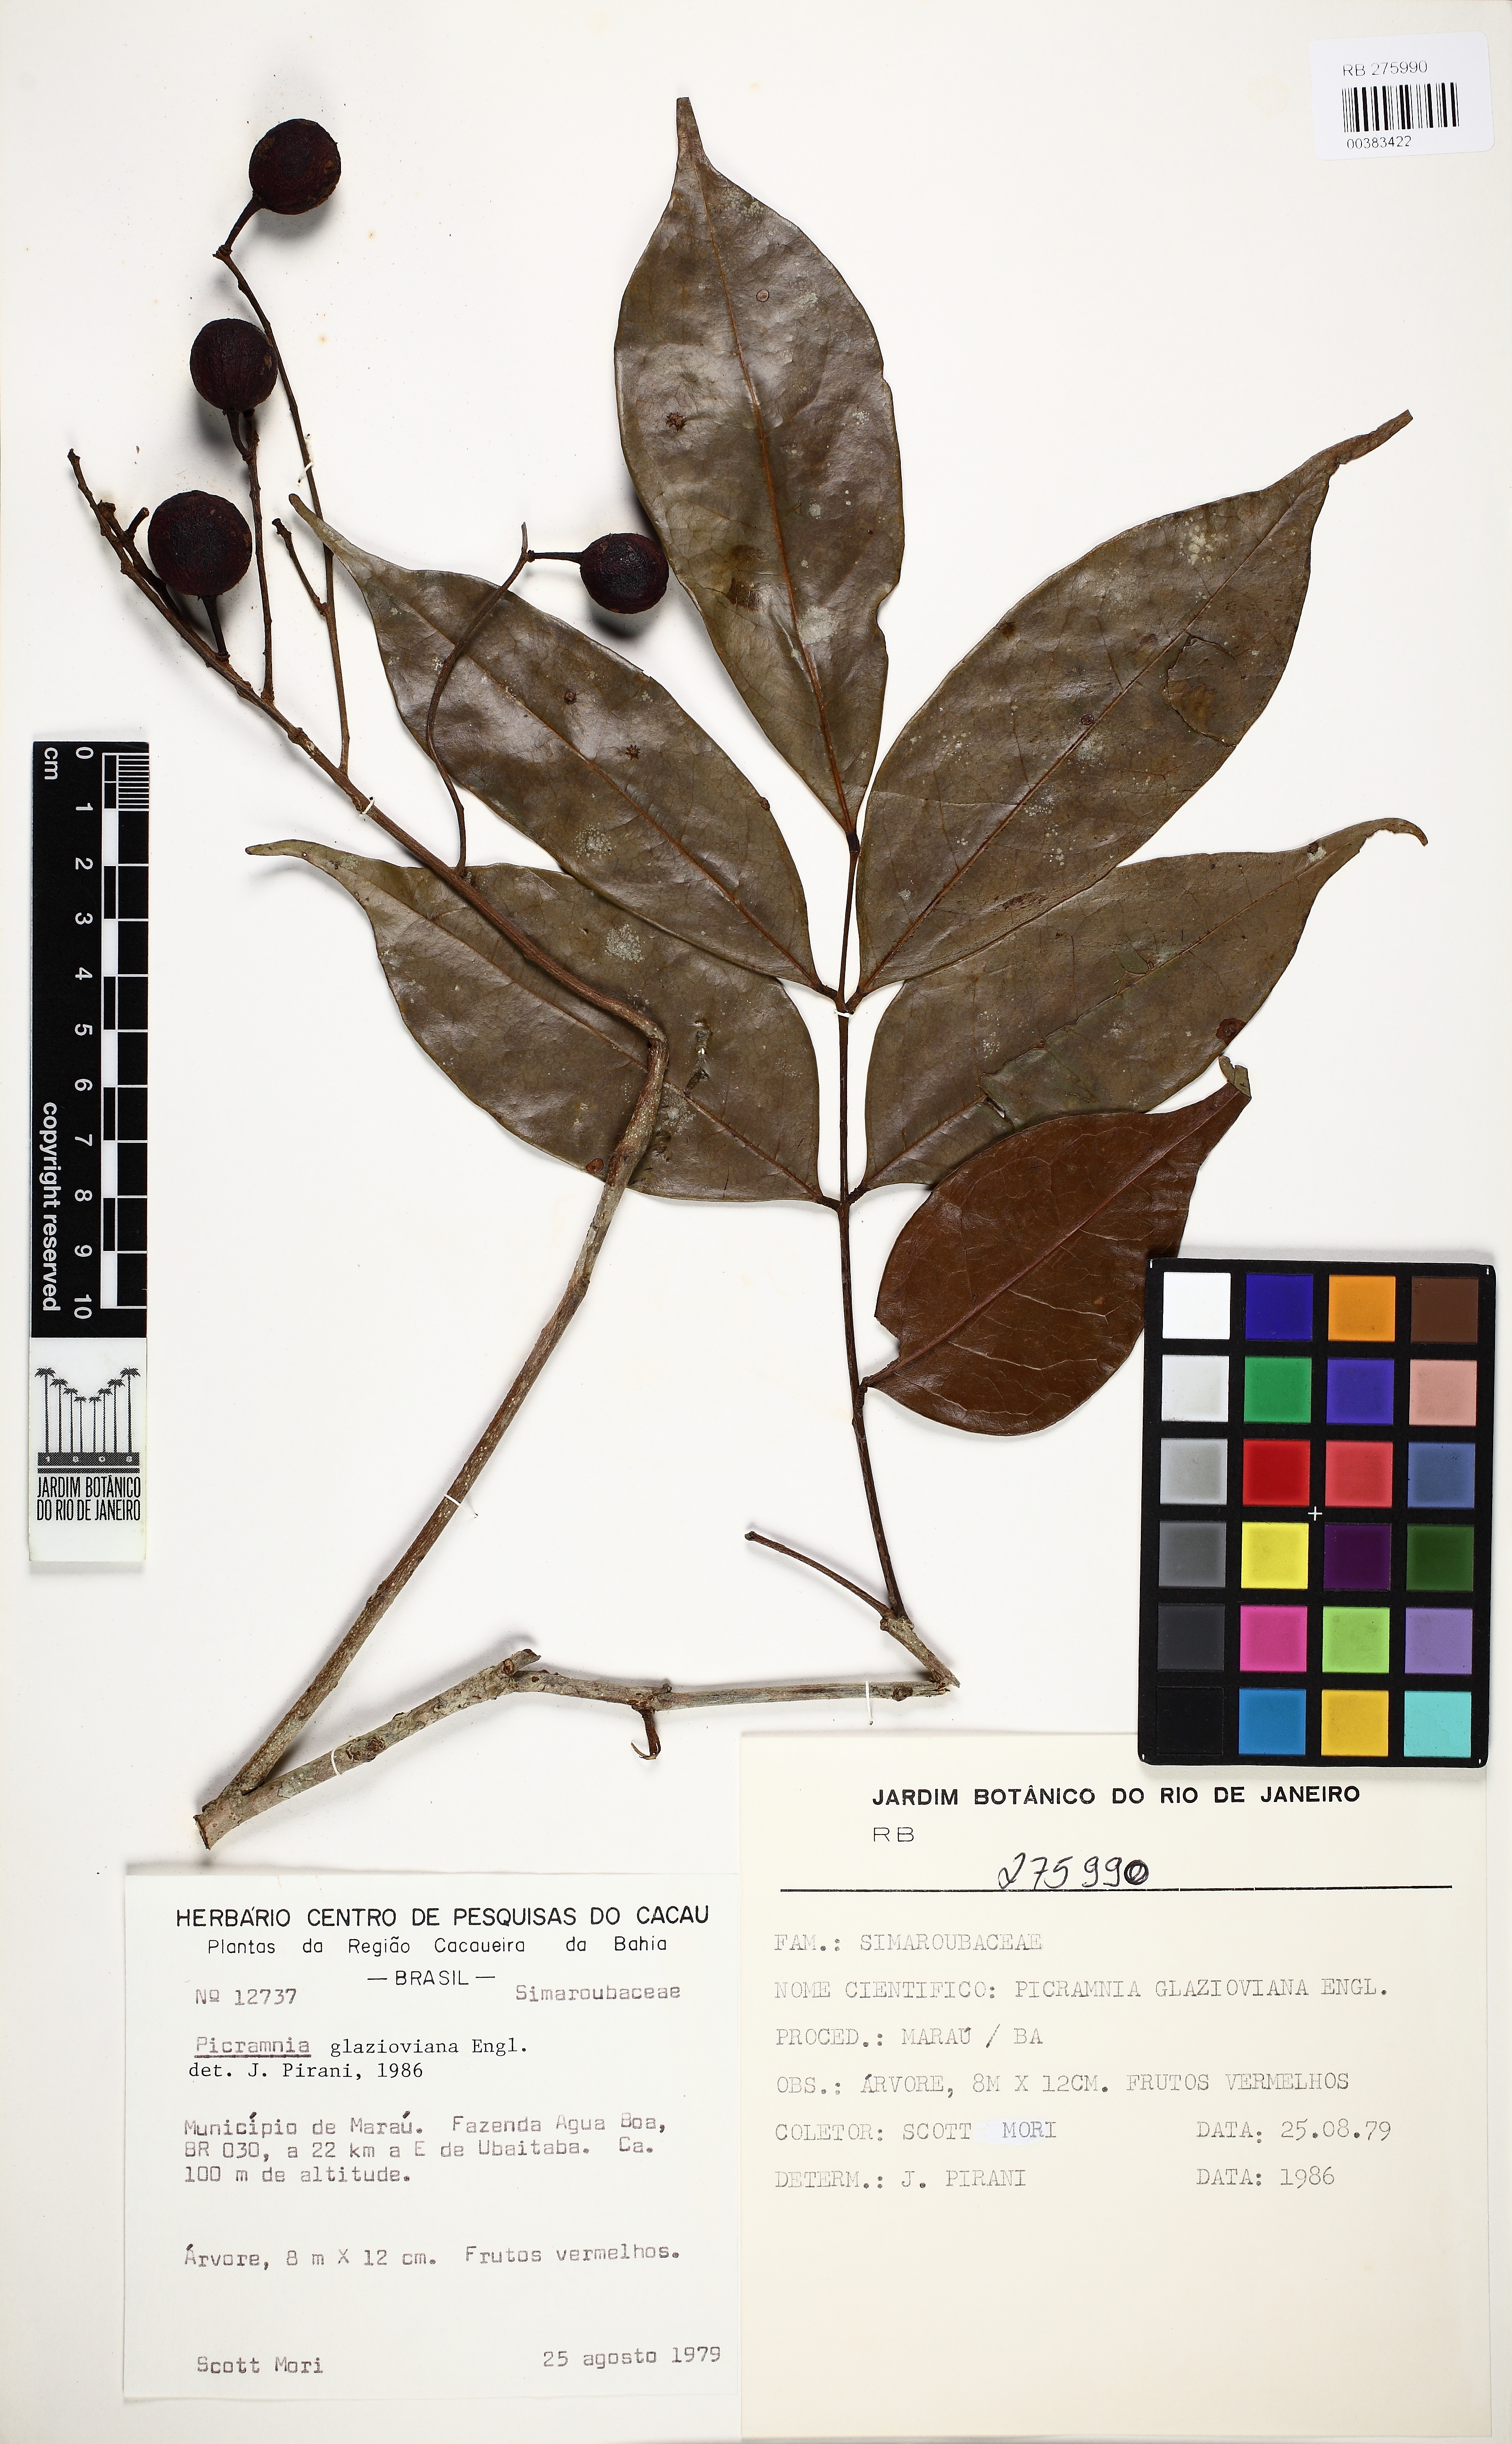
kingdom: Plantae
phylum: Tracheophyta
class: Magnoliopsida
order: Picramniales
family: Picramniaceae
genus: Picramnia
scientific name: Picramnia glazioviana
